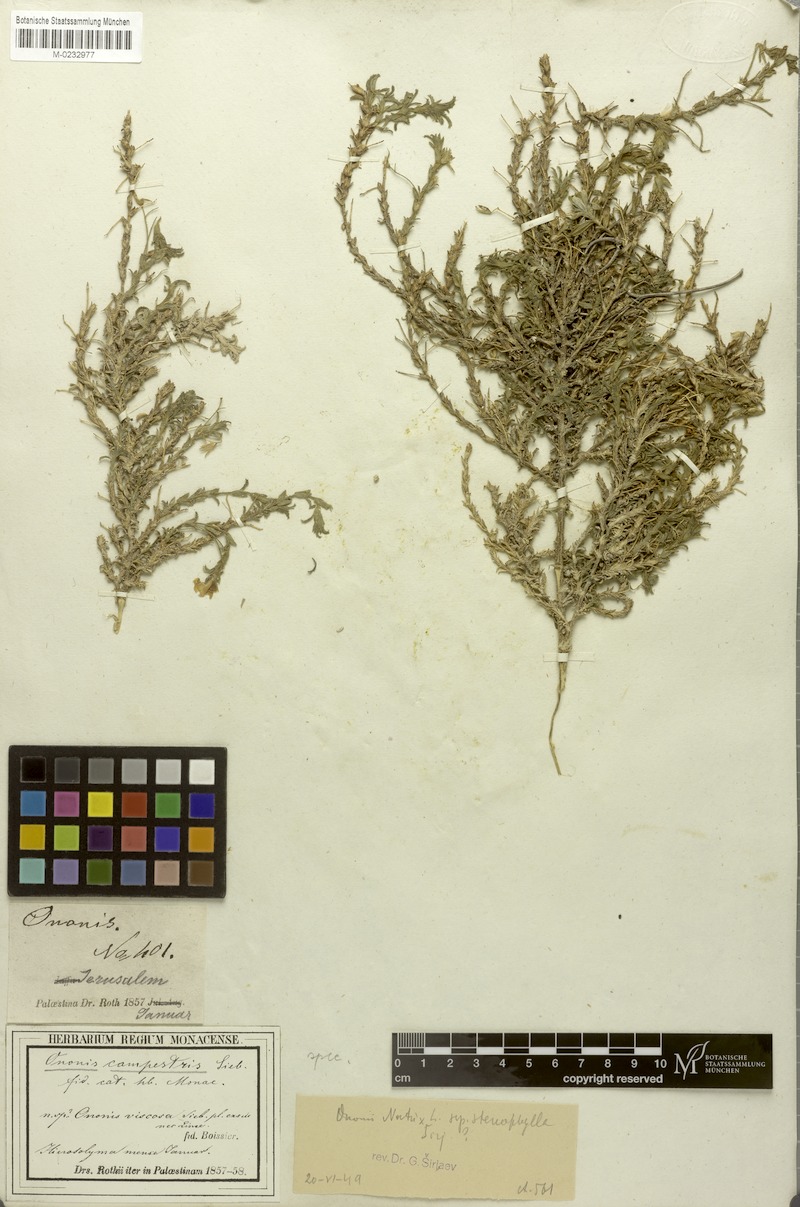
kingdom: Plantae
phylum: Tracheophyta
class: Magnoliopsida
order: Fabales
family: Fabaceae
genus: Ononis
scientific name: Ononis natrix
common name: Yellow restharrow
